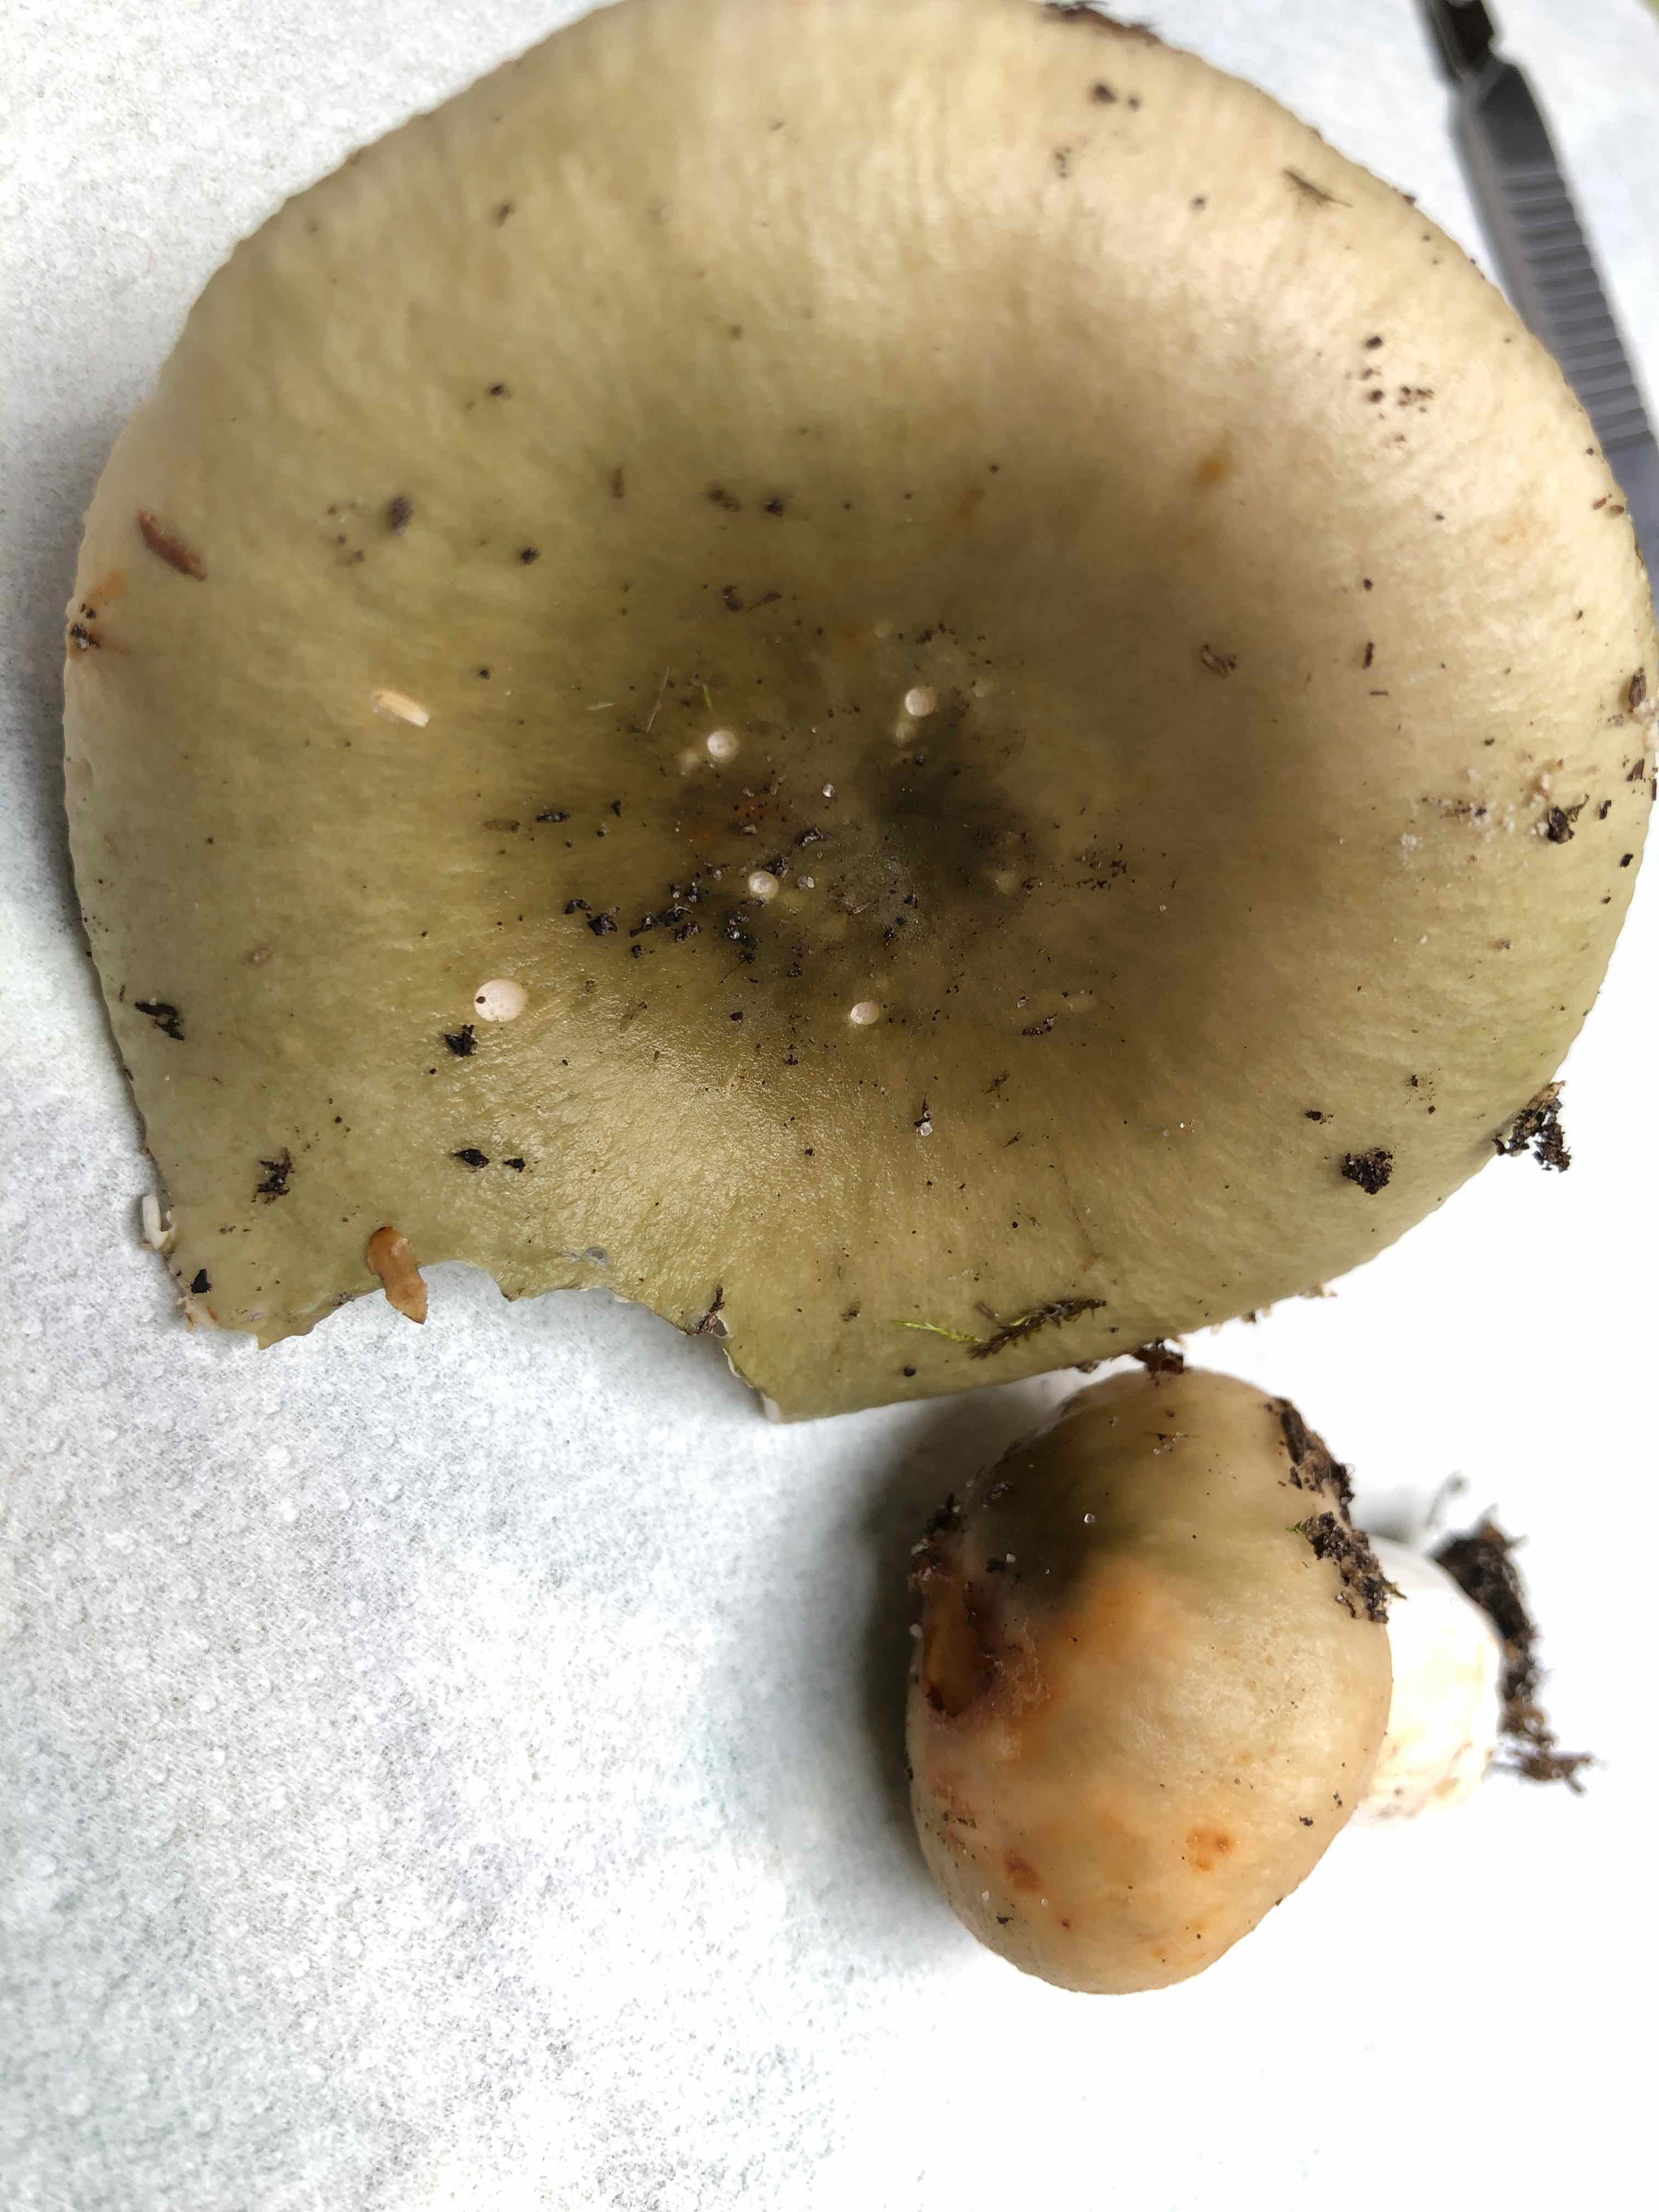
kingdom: Fungi
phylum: Basidiomycota
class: Agaricomycetes
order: Russulales
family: Russulaceae
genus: Russula
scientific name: Russula aeruginea
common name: græsgrøn skørhat
